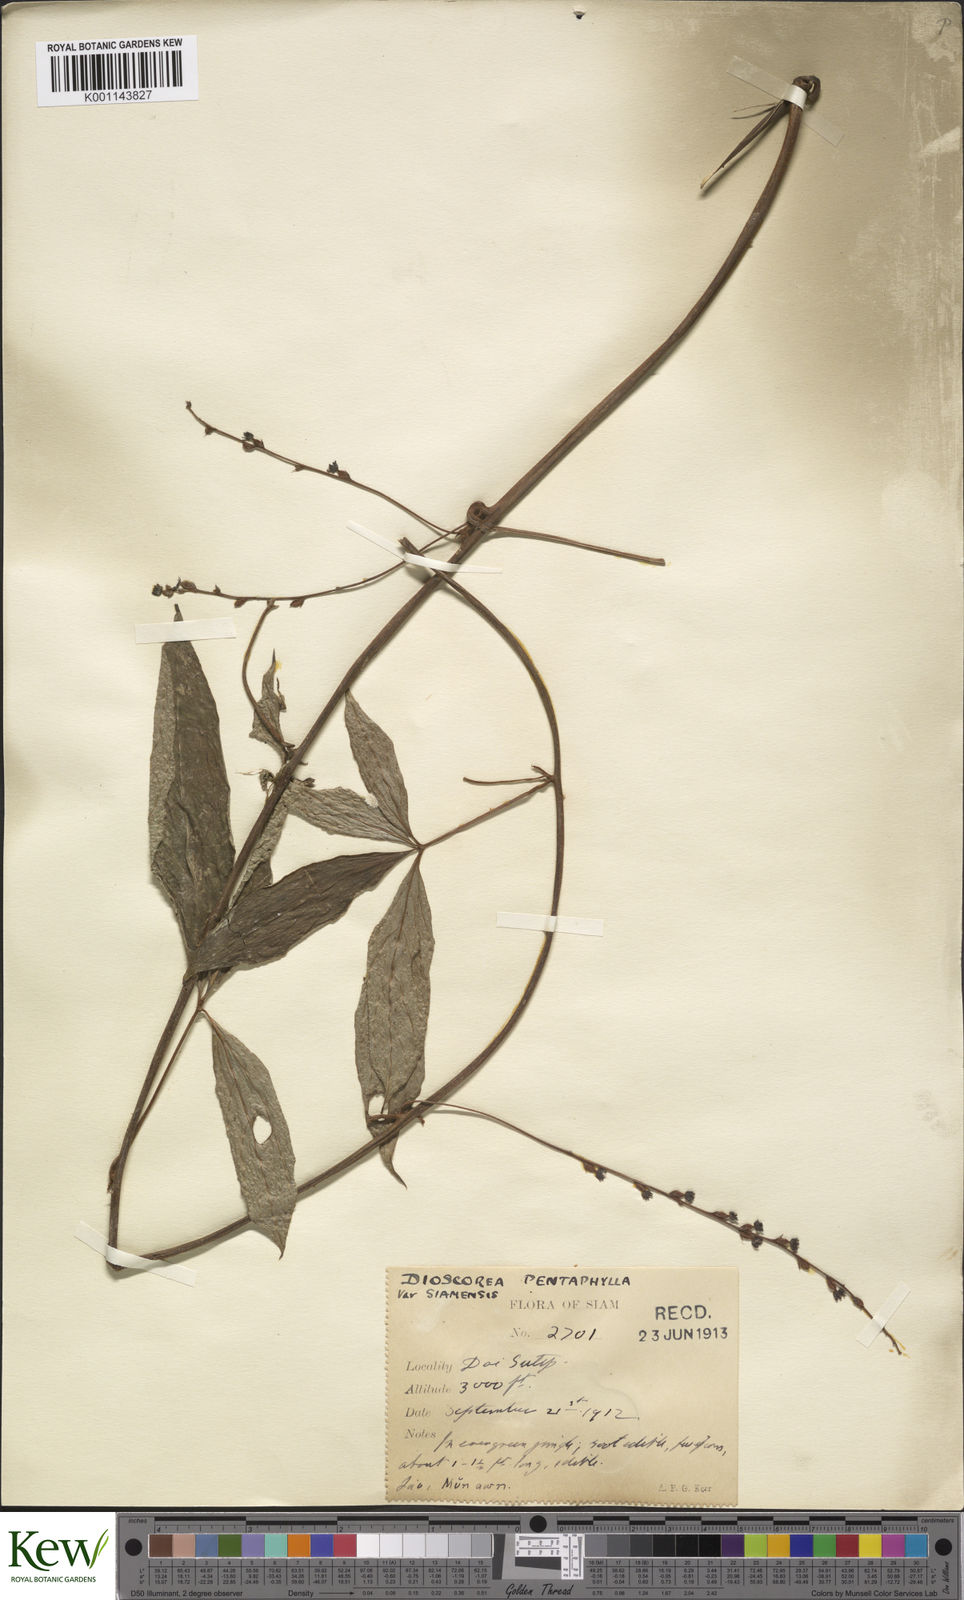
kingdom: Plantae
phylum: Tracheophyta
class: Liliopsida
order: Dioscoreales
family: Dioscoreaceae
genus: Dioscorea
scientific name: Dioscorea pentaphylla
